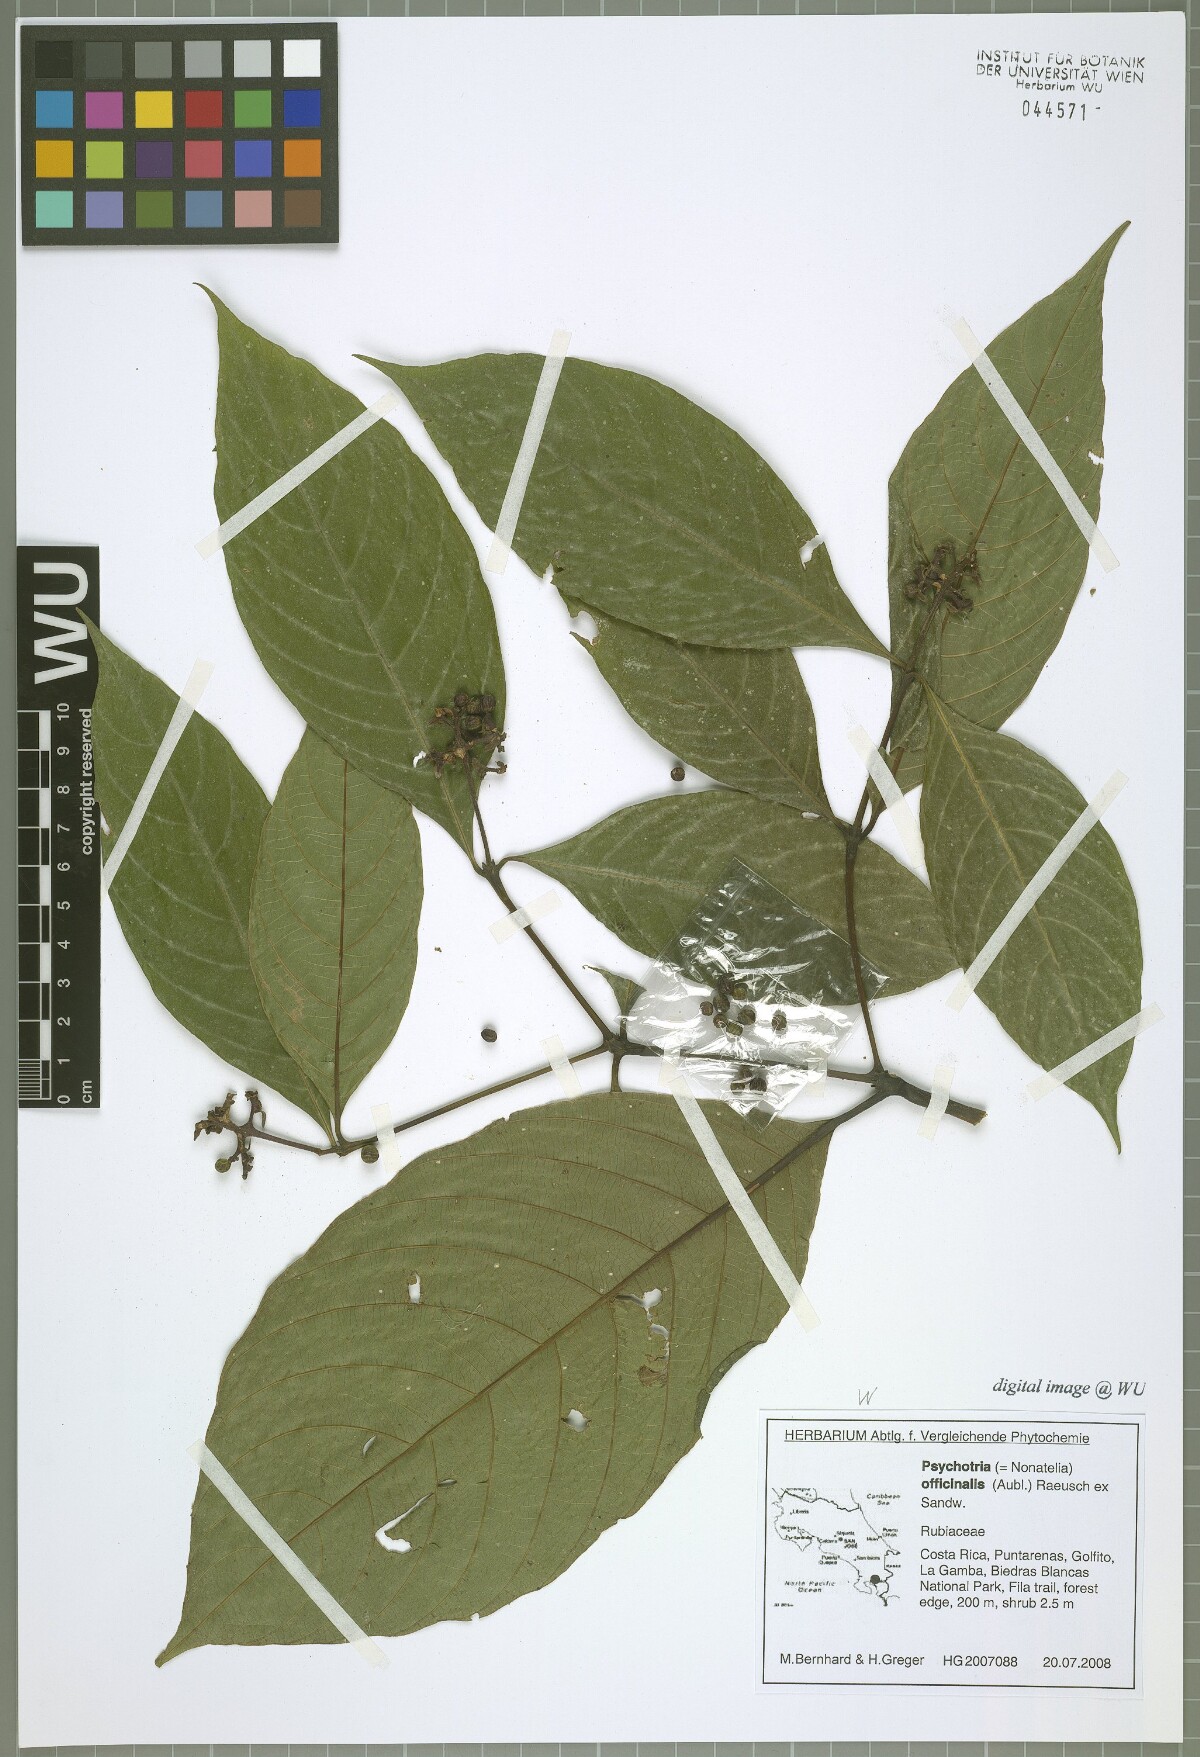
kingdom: Plantae
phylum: Tracheophyta
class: Magnoliopsida
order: Gentianales
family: Rubiaceae
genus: Palicourea
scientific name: Palicourea winkleri
